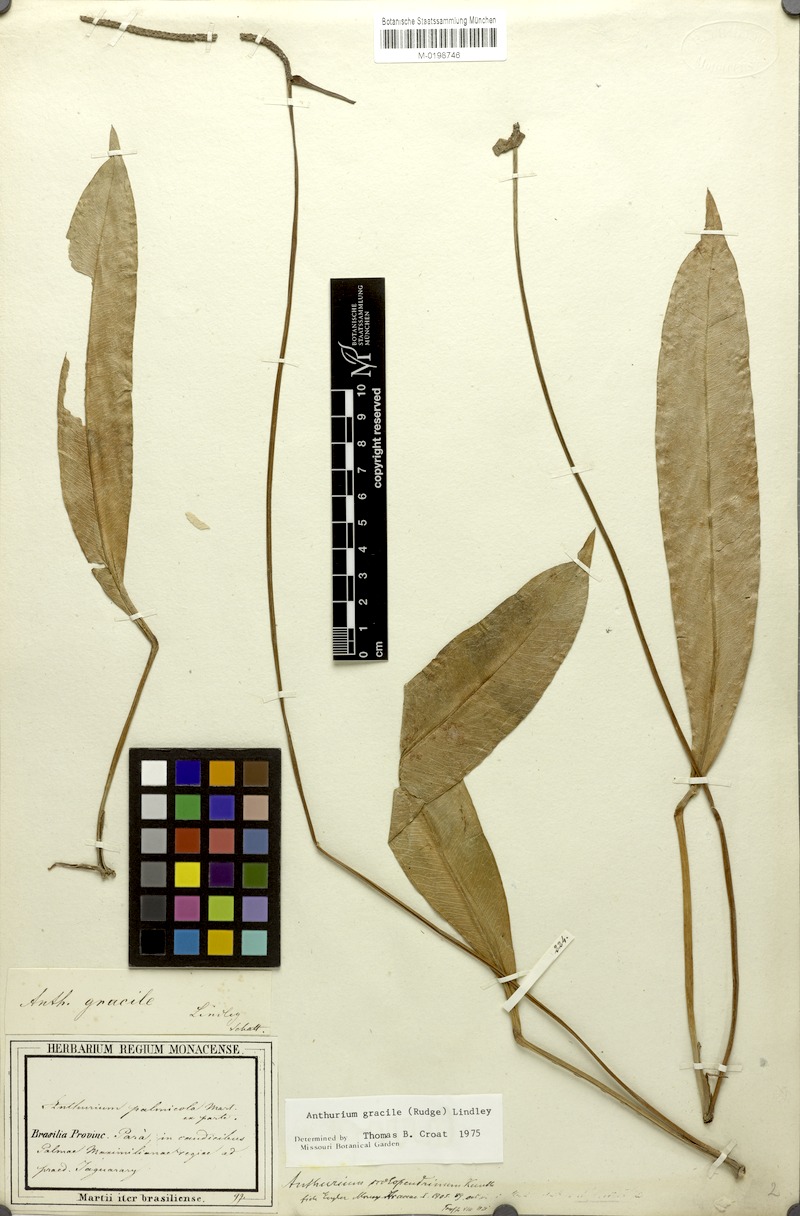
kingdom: Plantae
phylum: Tracheophyta
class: Liliopsida
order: Alismatales
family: Araceae
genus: Anthurium
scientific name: Anthurium gracile
